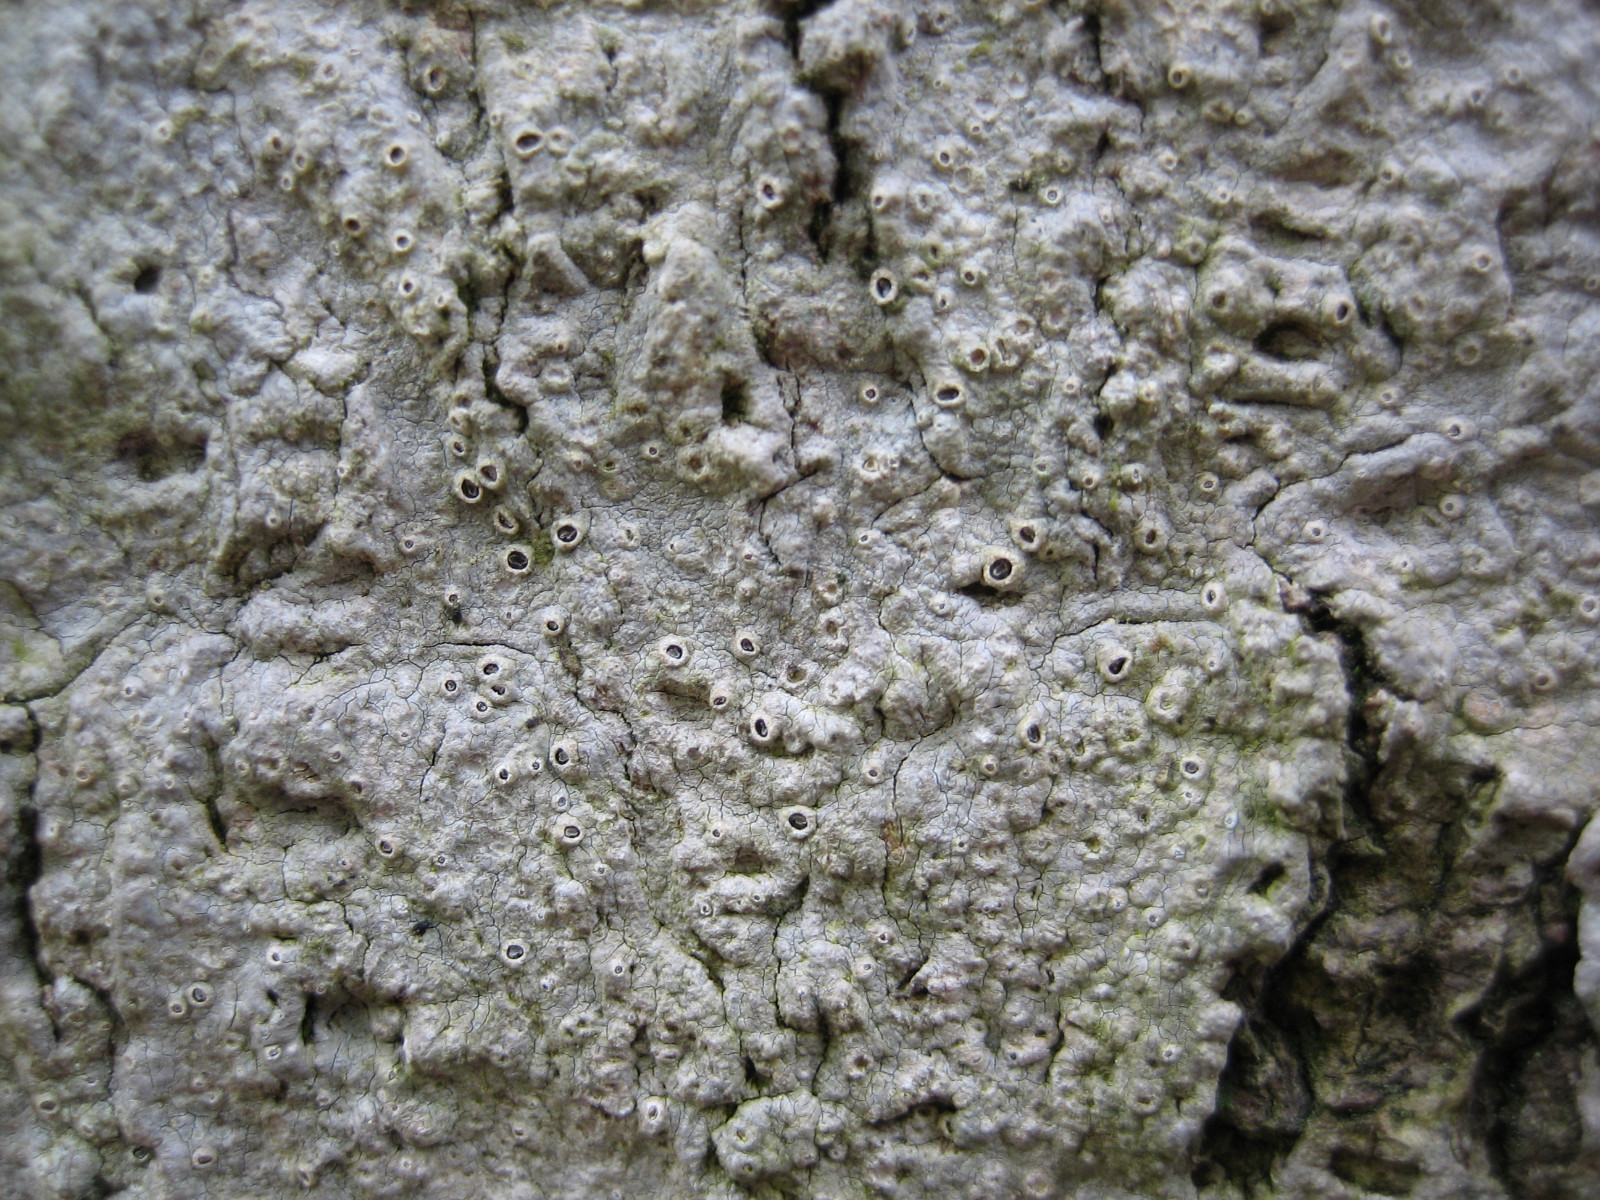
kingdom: Fungi
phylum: Ascomycota
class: Lecanoromycetes
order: Ostropales
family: Graphidaceae
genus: Thelotrema
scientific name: Thelotrema lepadinum
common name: almindelig slørkantlav
